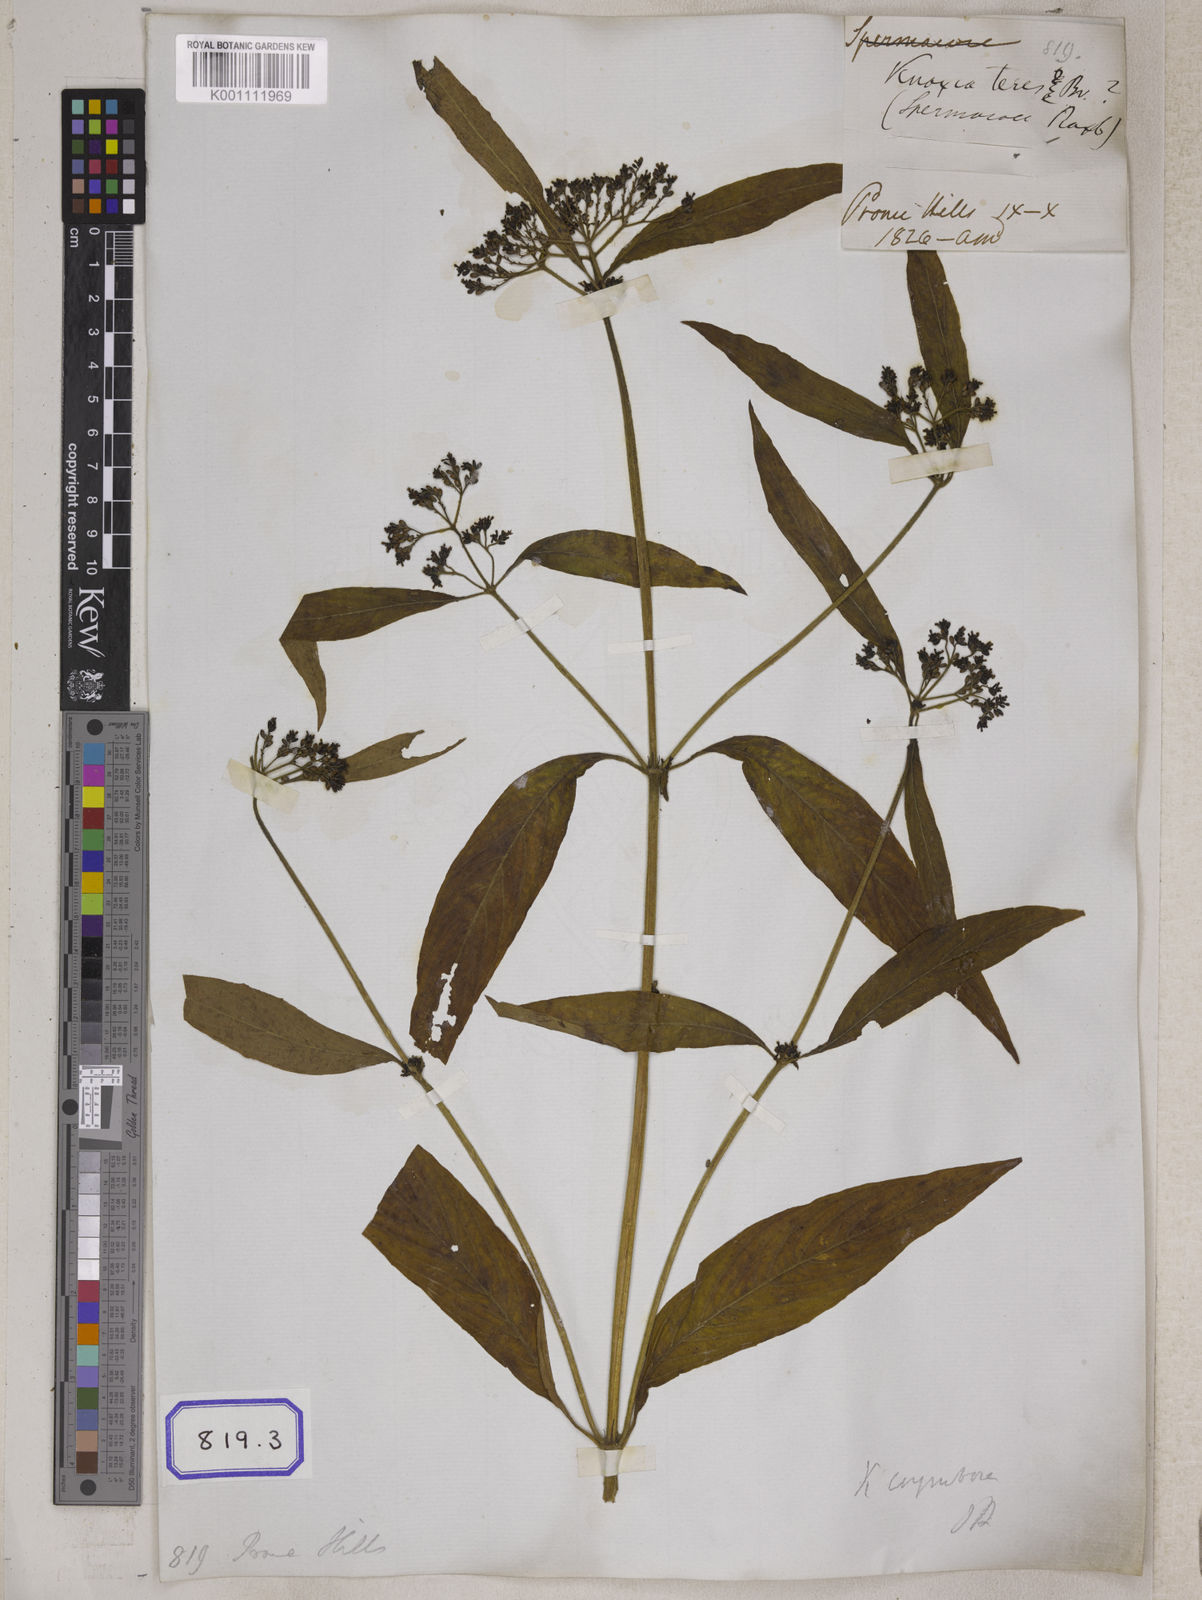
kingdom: Plantae
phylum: Tracheophyta
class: Magnoliopsida
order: Gentianales
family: Rubiaceae
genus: Knoxia
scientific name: Knoxia sumatrensis
